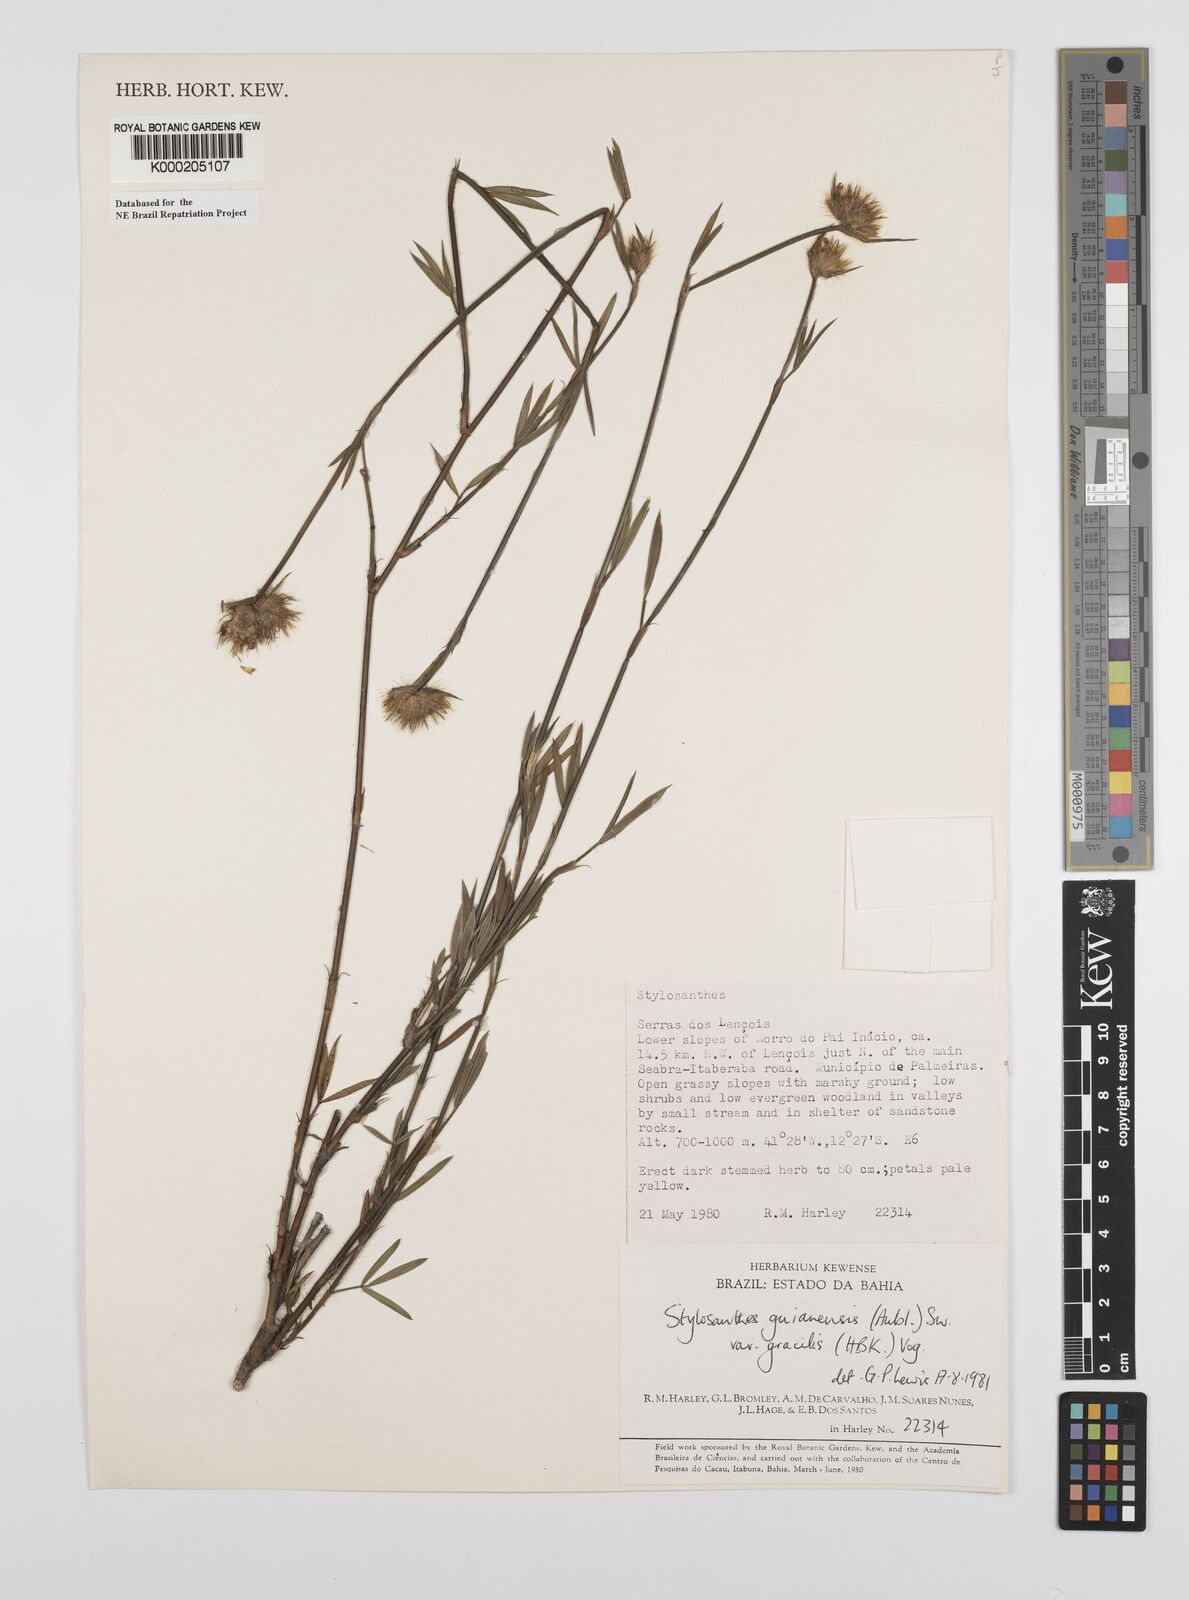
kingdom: Plantae
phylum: Tracheophyta
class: Magnoliopsida
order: Fabales
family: Fabaceae
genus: Stylosanthes
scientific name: Stylosanthes guianensis
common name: Pencil flower
